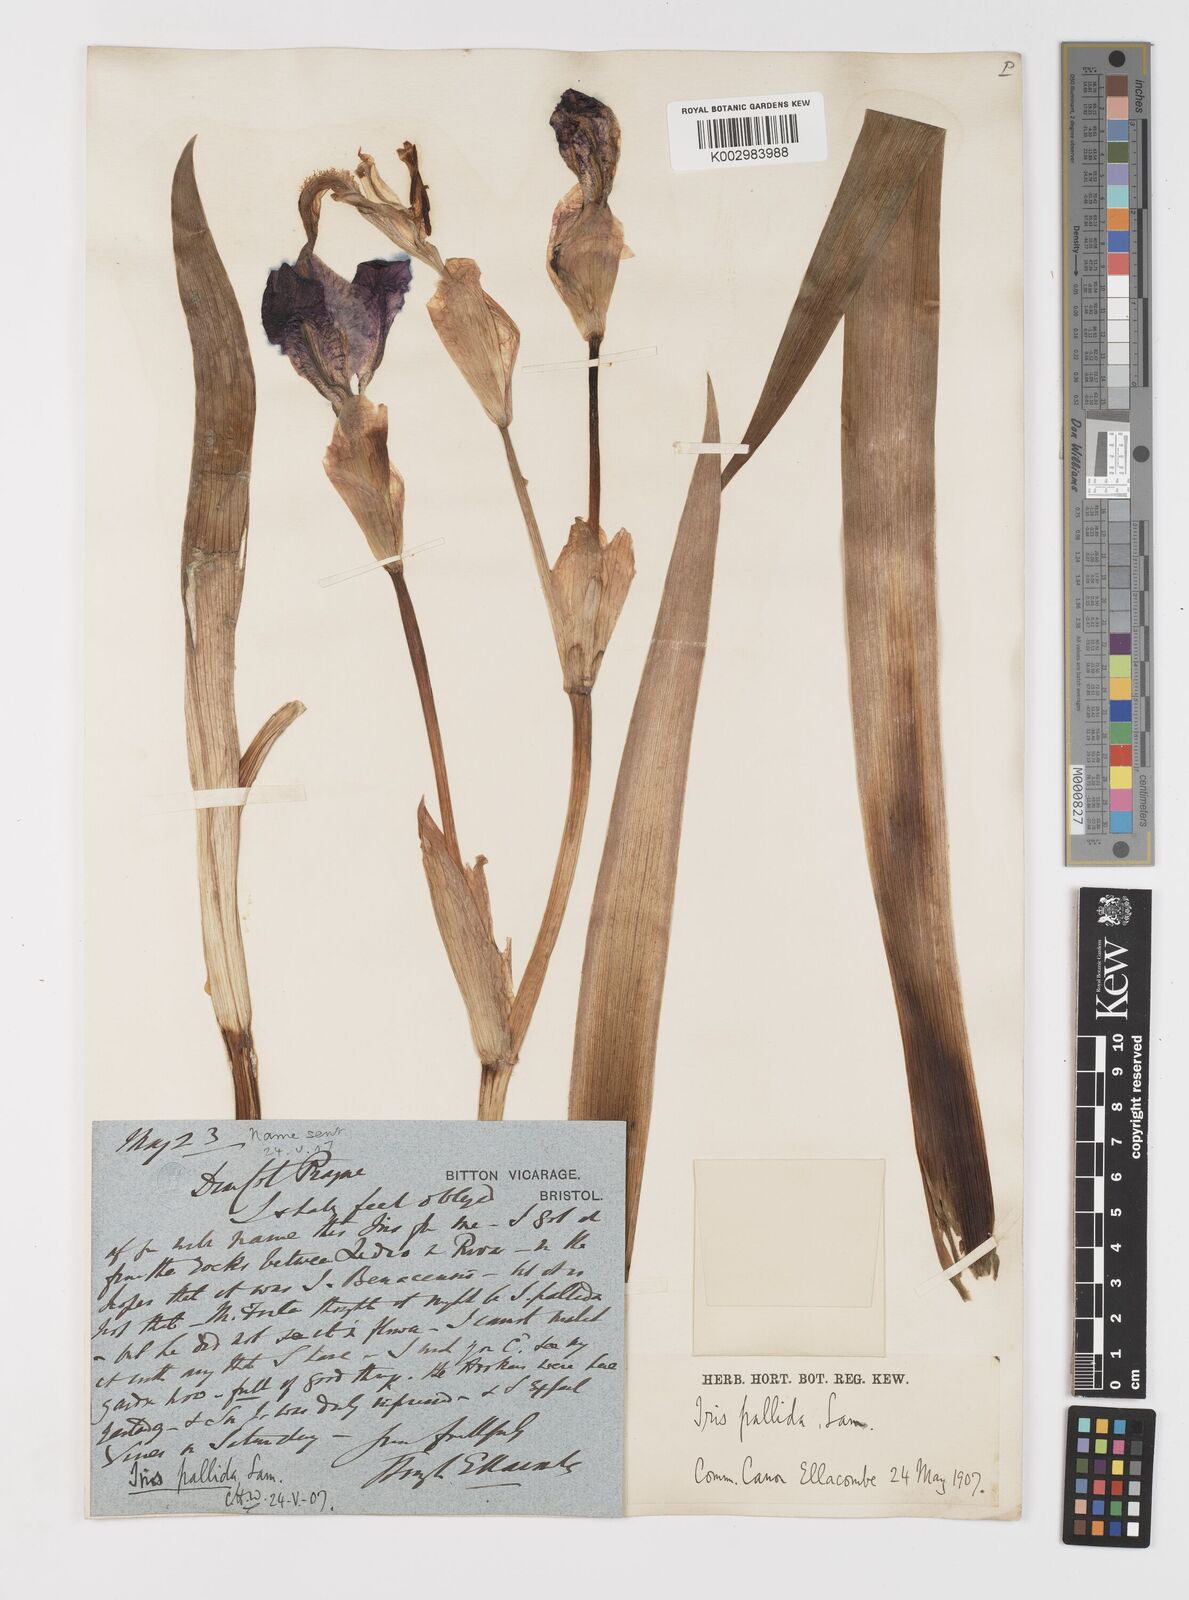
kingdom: Plantae
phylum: Tracheophyta
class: Liliopsida
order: Asparagales
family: Iridaceae
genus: Iris
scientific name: Iris halophila
